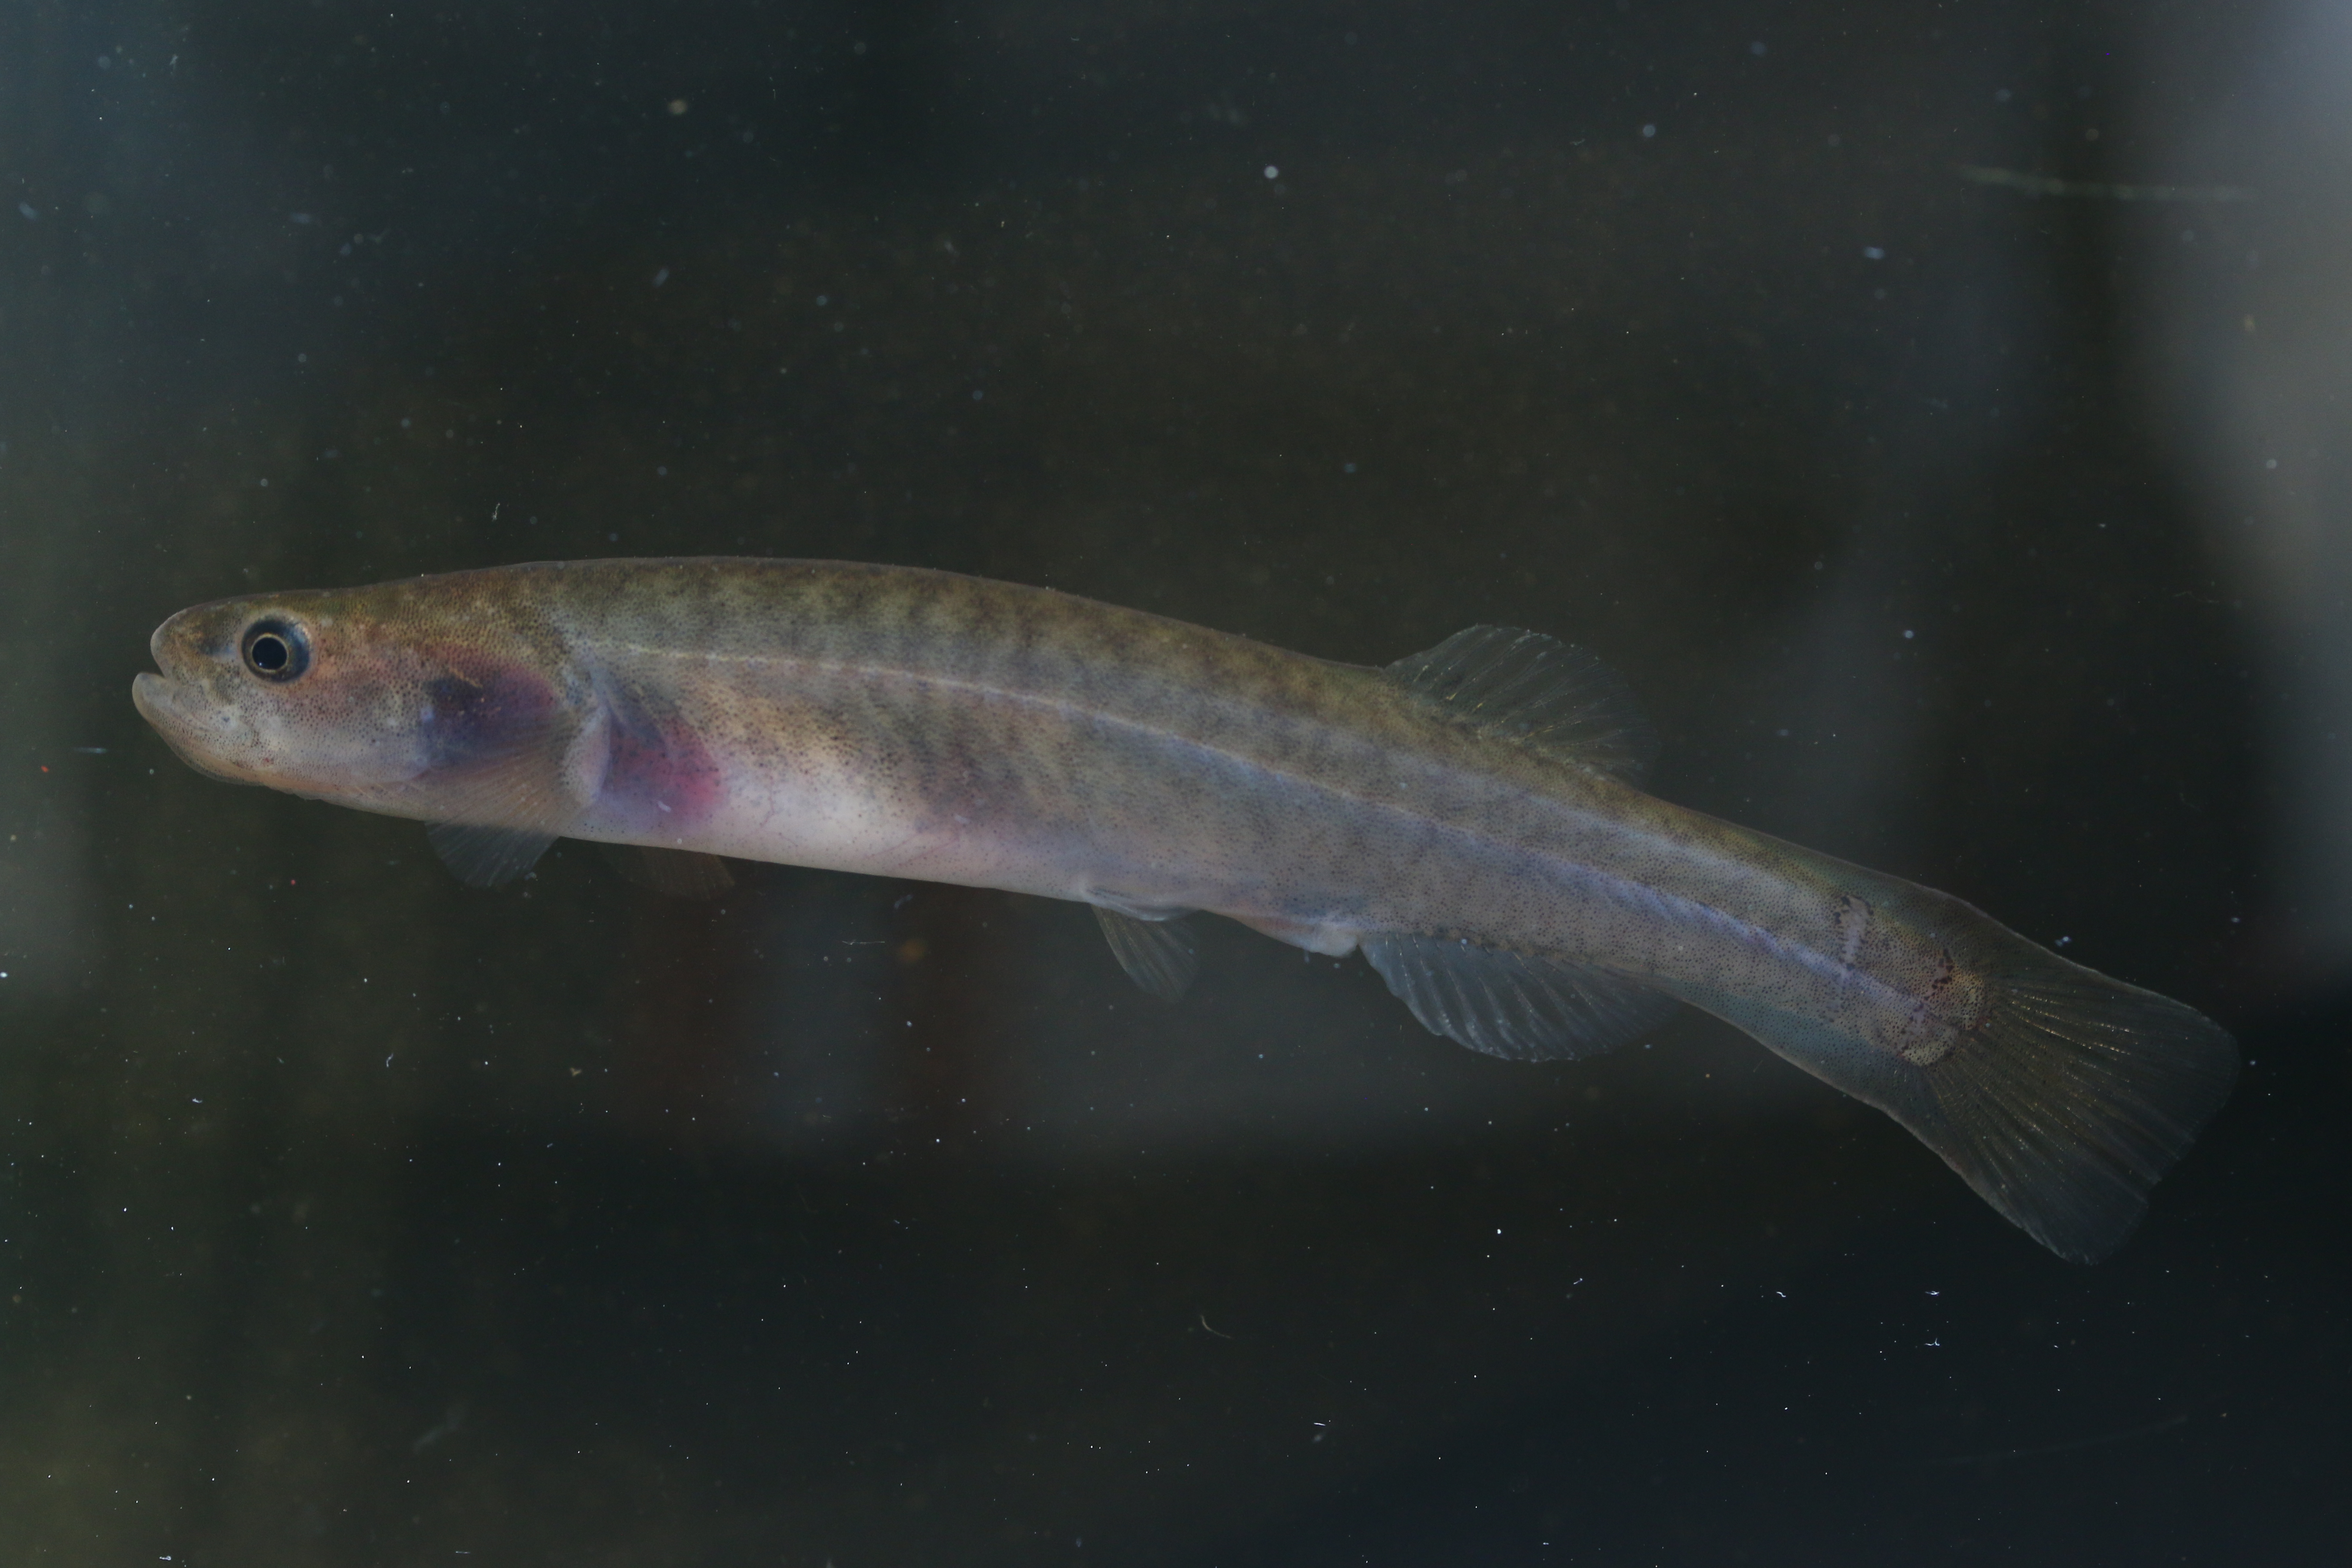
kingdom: Animalia
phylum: Chordata
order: Osmeriformes
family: Galaxiidae
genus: Galaxias
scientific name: Galaxias zebratus
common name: Cape galaxias
